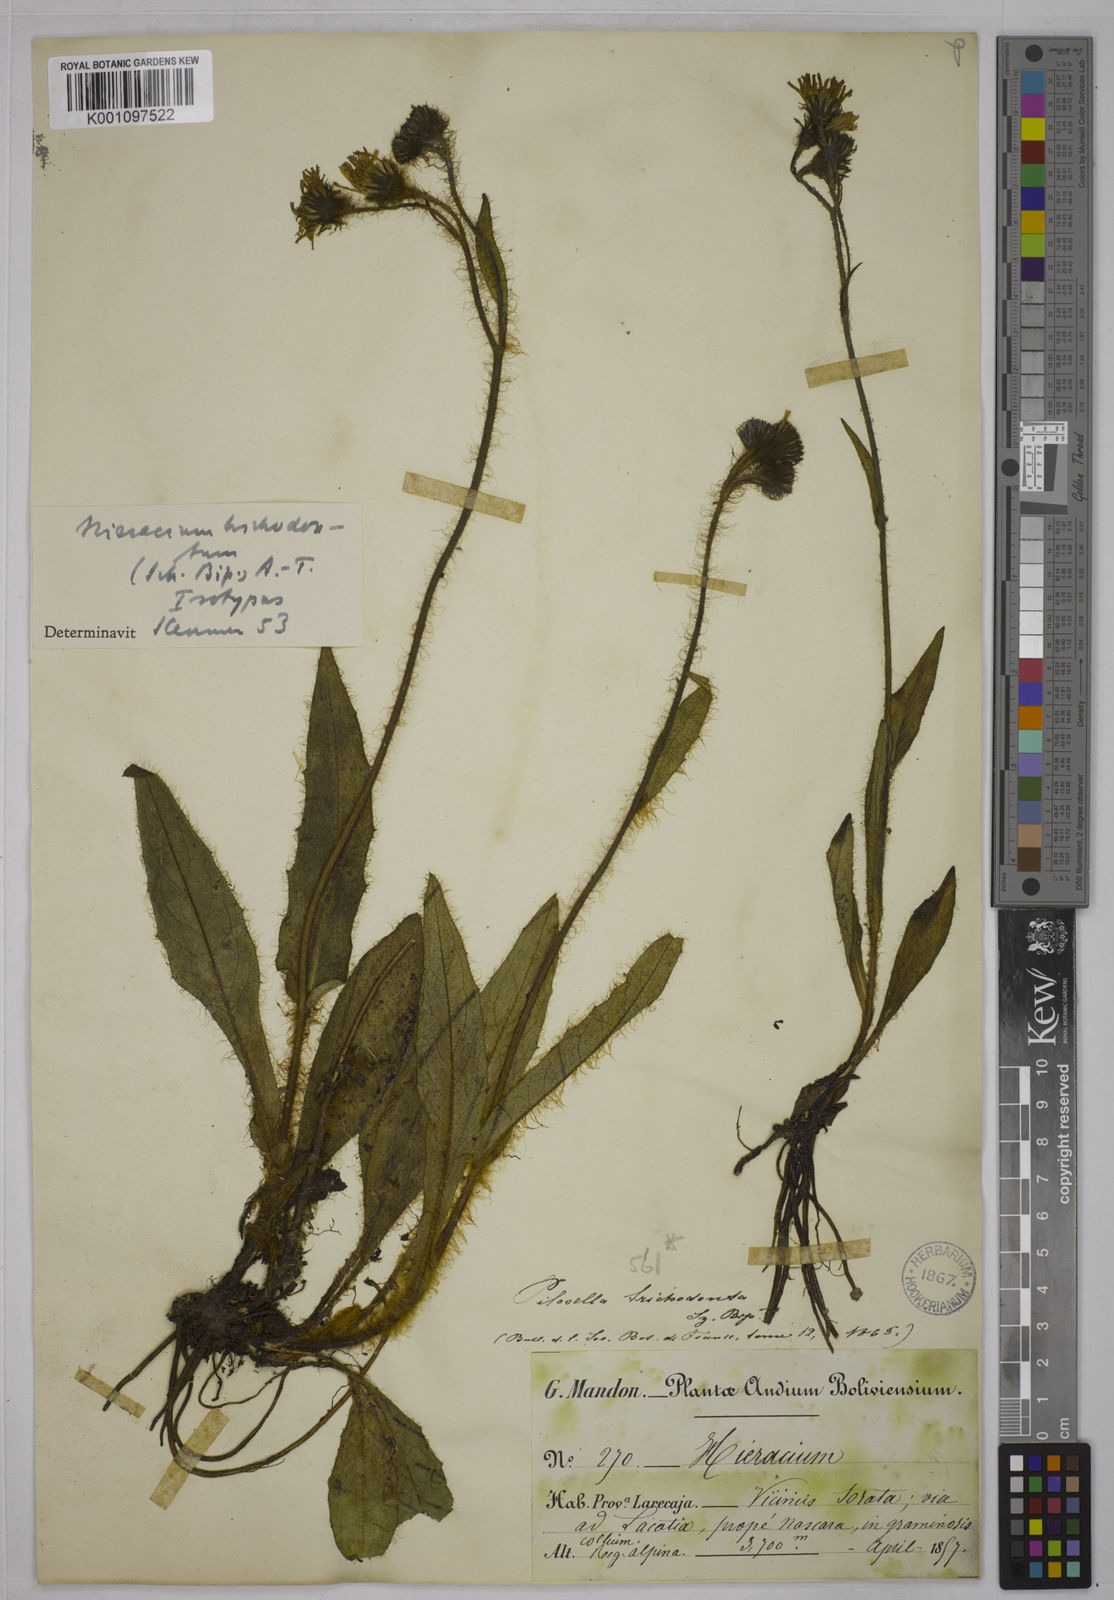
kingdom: Plantae
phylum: Tracheophyta
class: Magnoliopsida
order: Asterales
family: Asteraceae
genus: Hieracium
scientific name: Hieracium
